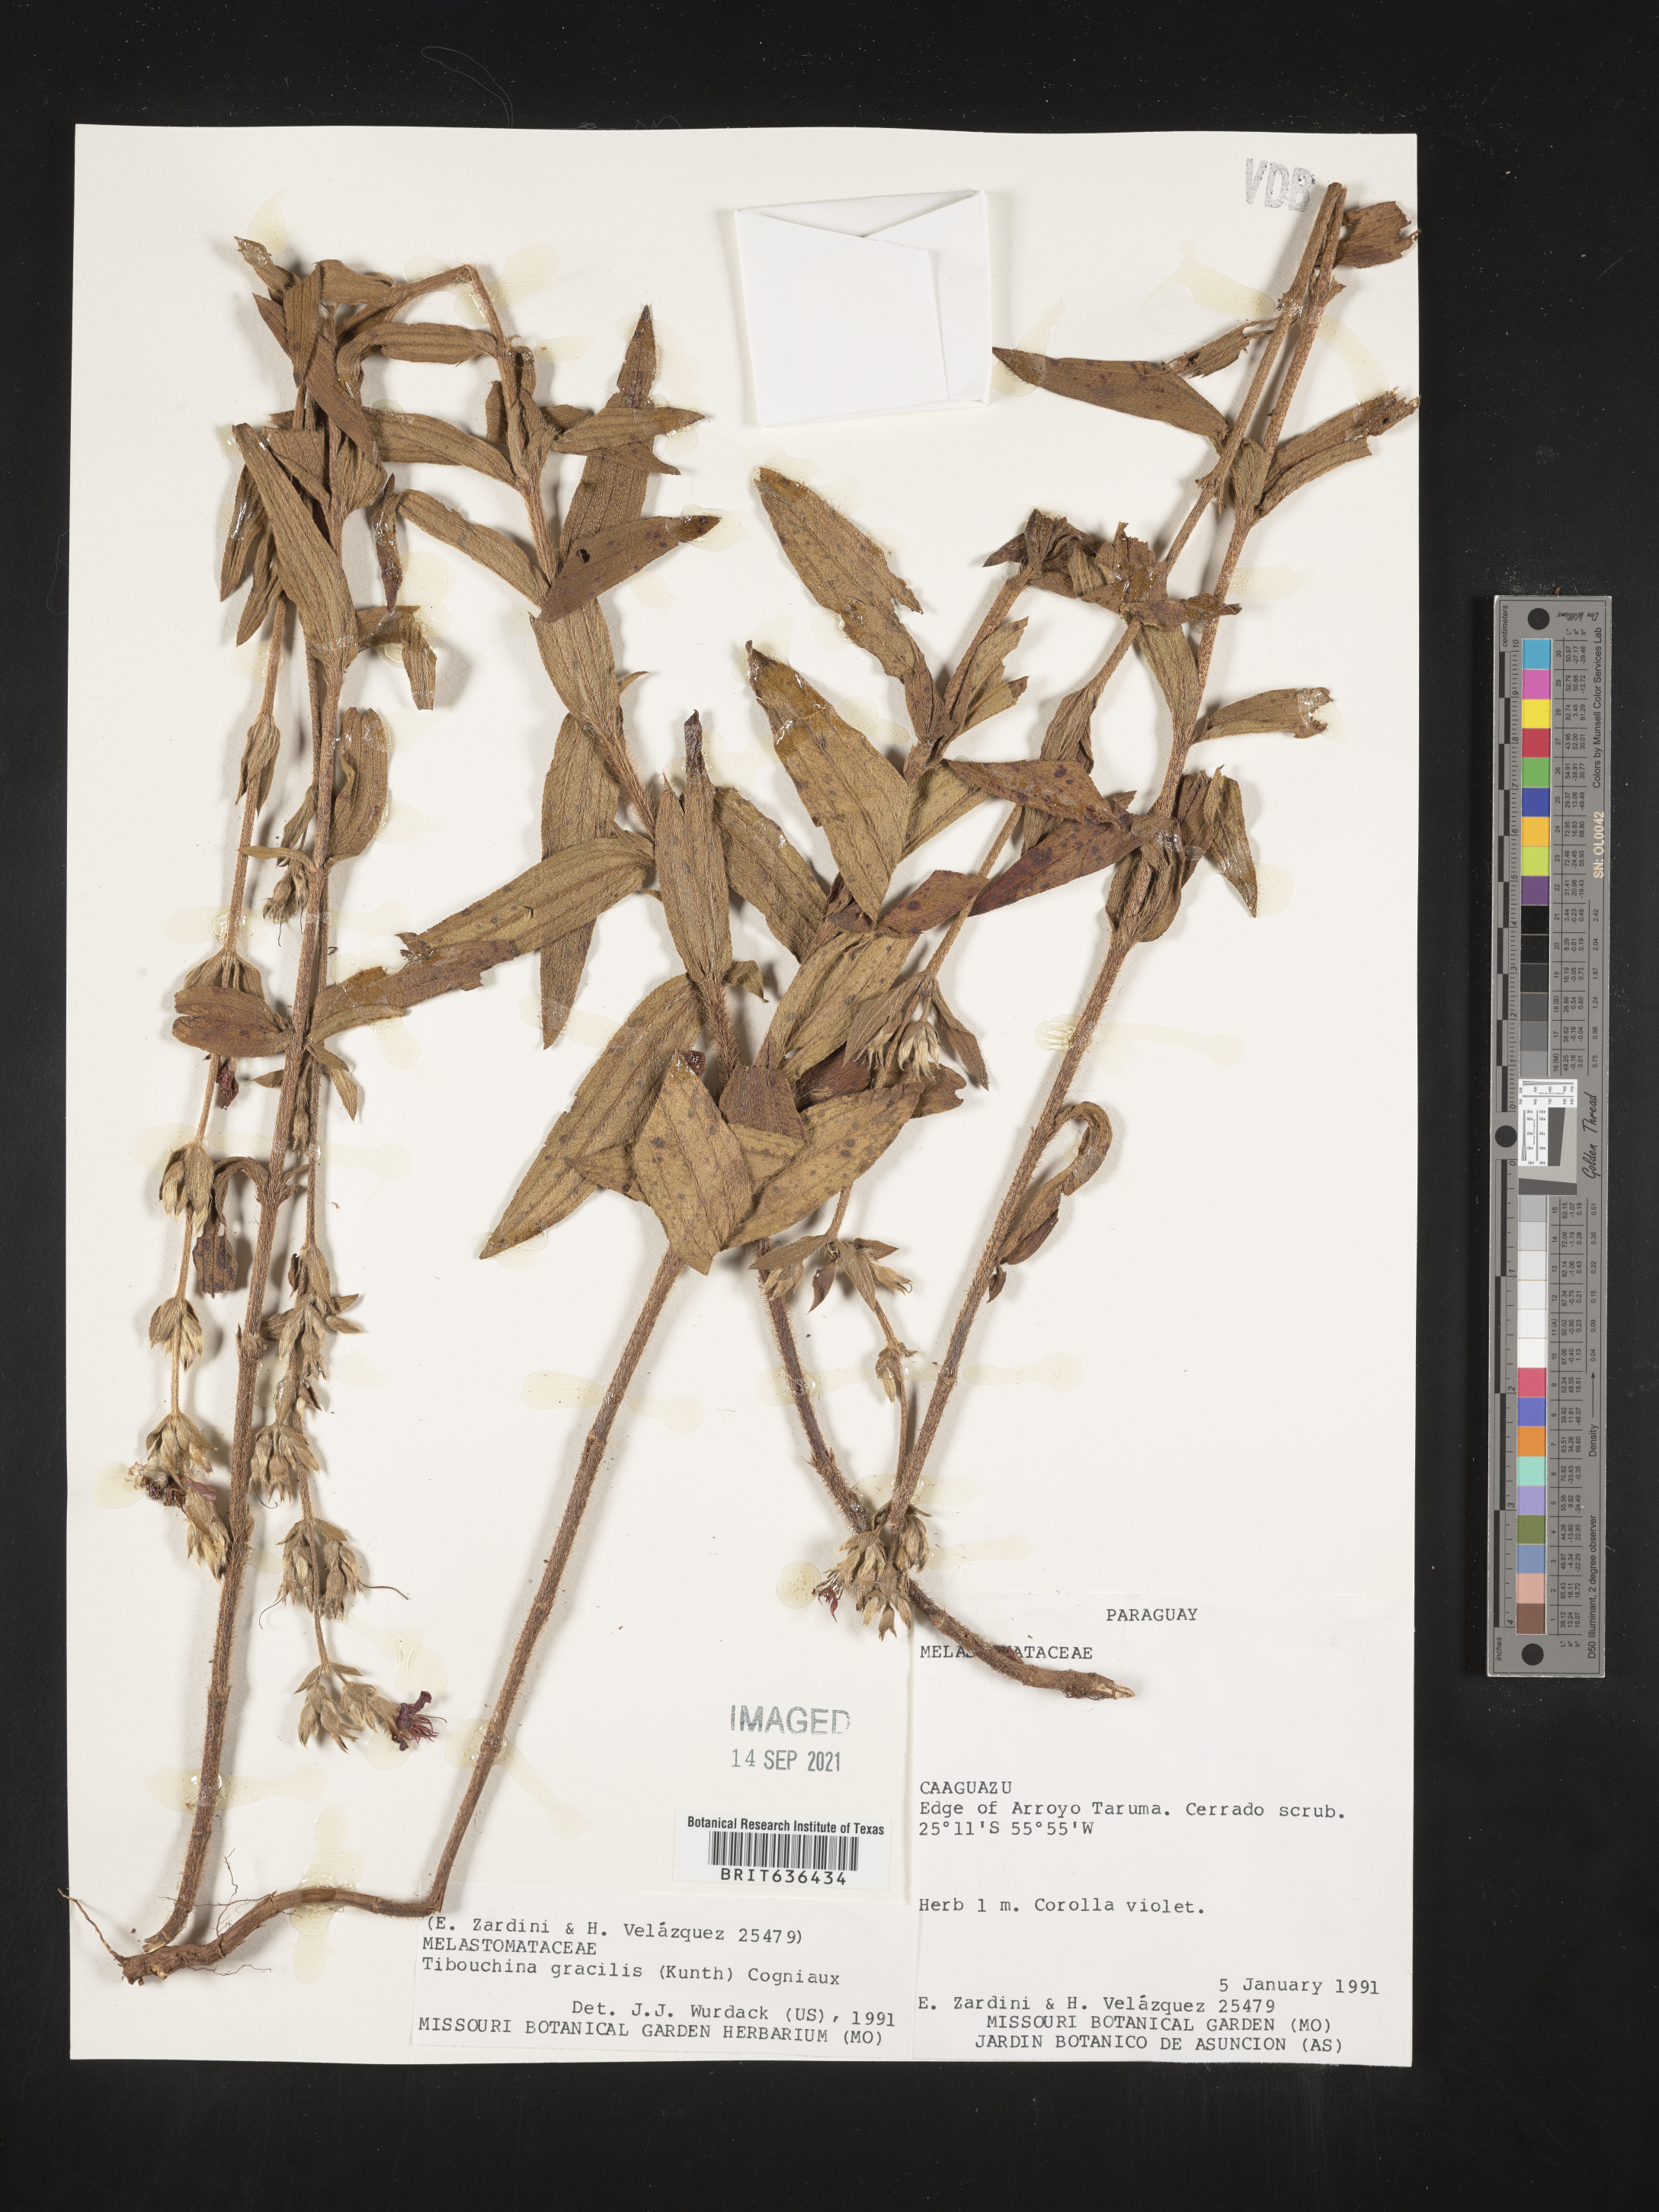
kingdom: Plantae
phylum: Tracheophyta
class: Magnoliopsida
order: Myrtales
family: Melastomataceae
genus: Tibouchina
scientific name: Tibouchina
